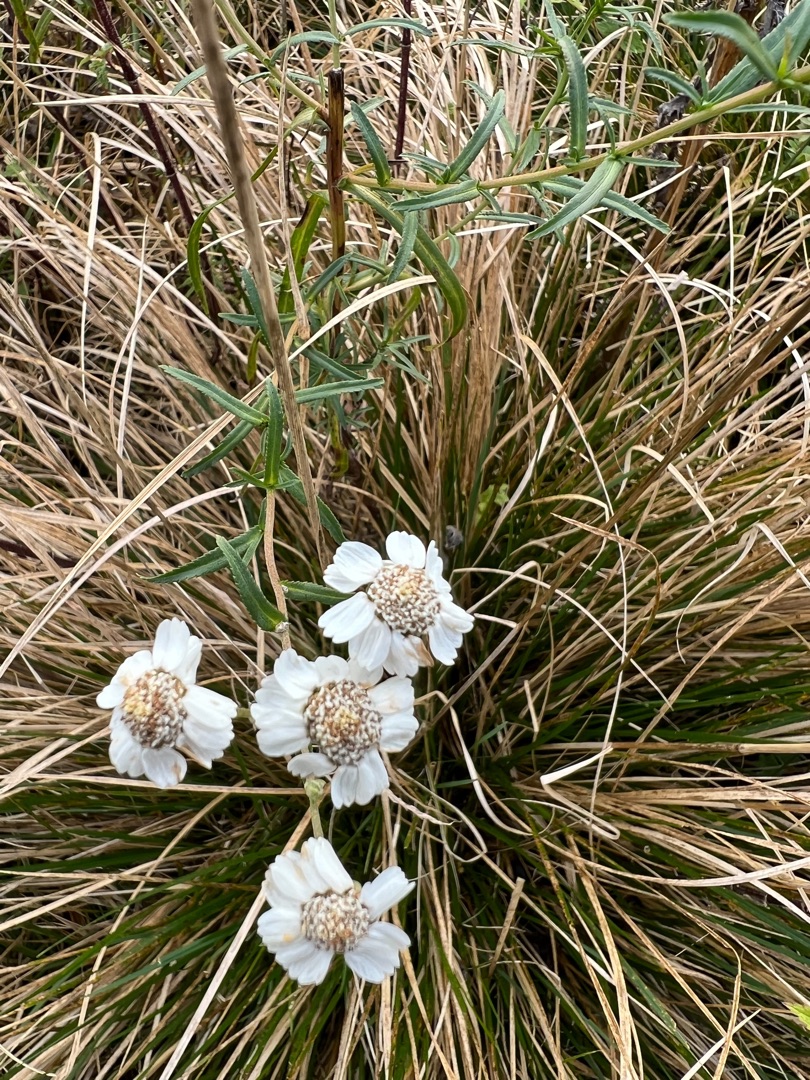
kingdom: Plantae
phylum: Tracheophyta
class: Magnoliopsida
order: Asterales
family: Asteraceae
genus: Achillea
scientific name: Achillea ptarmica
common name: Nyse-røllike
